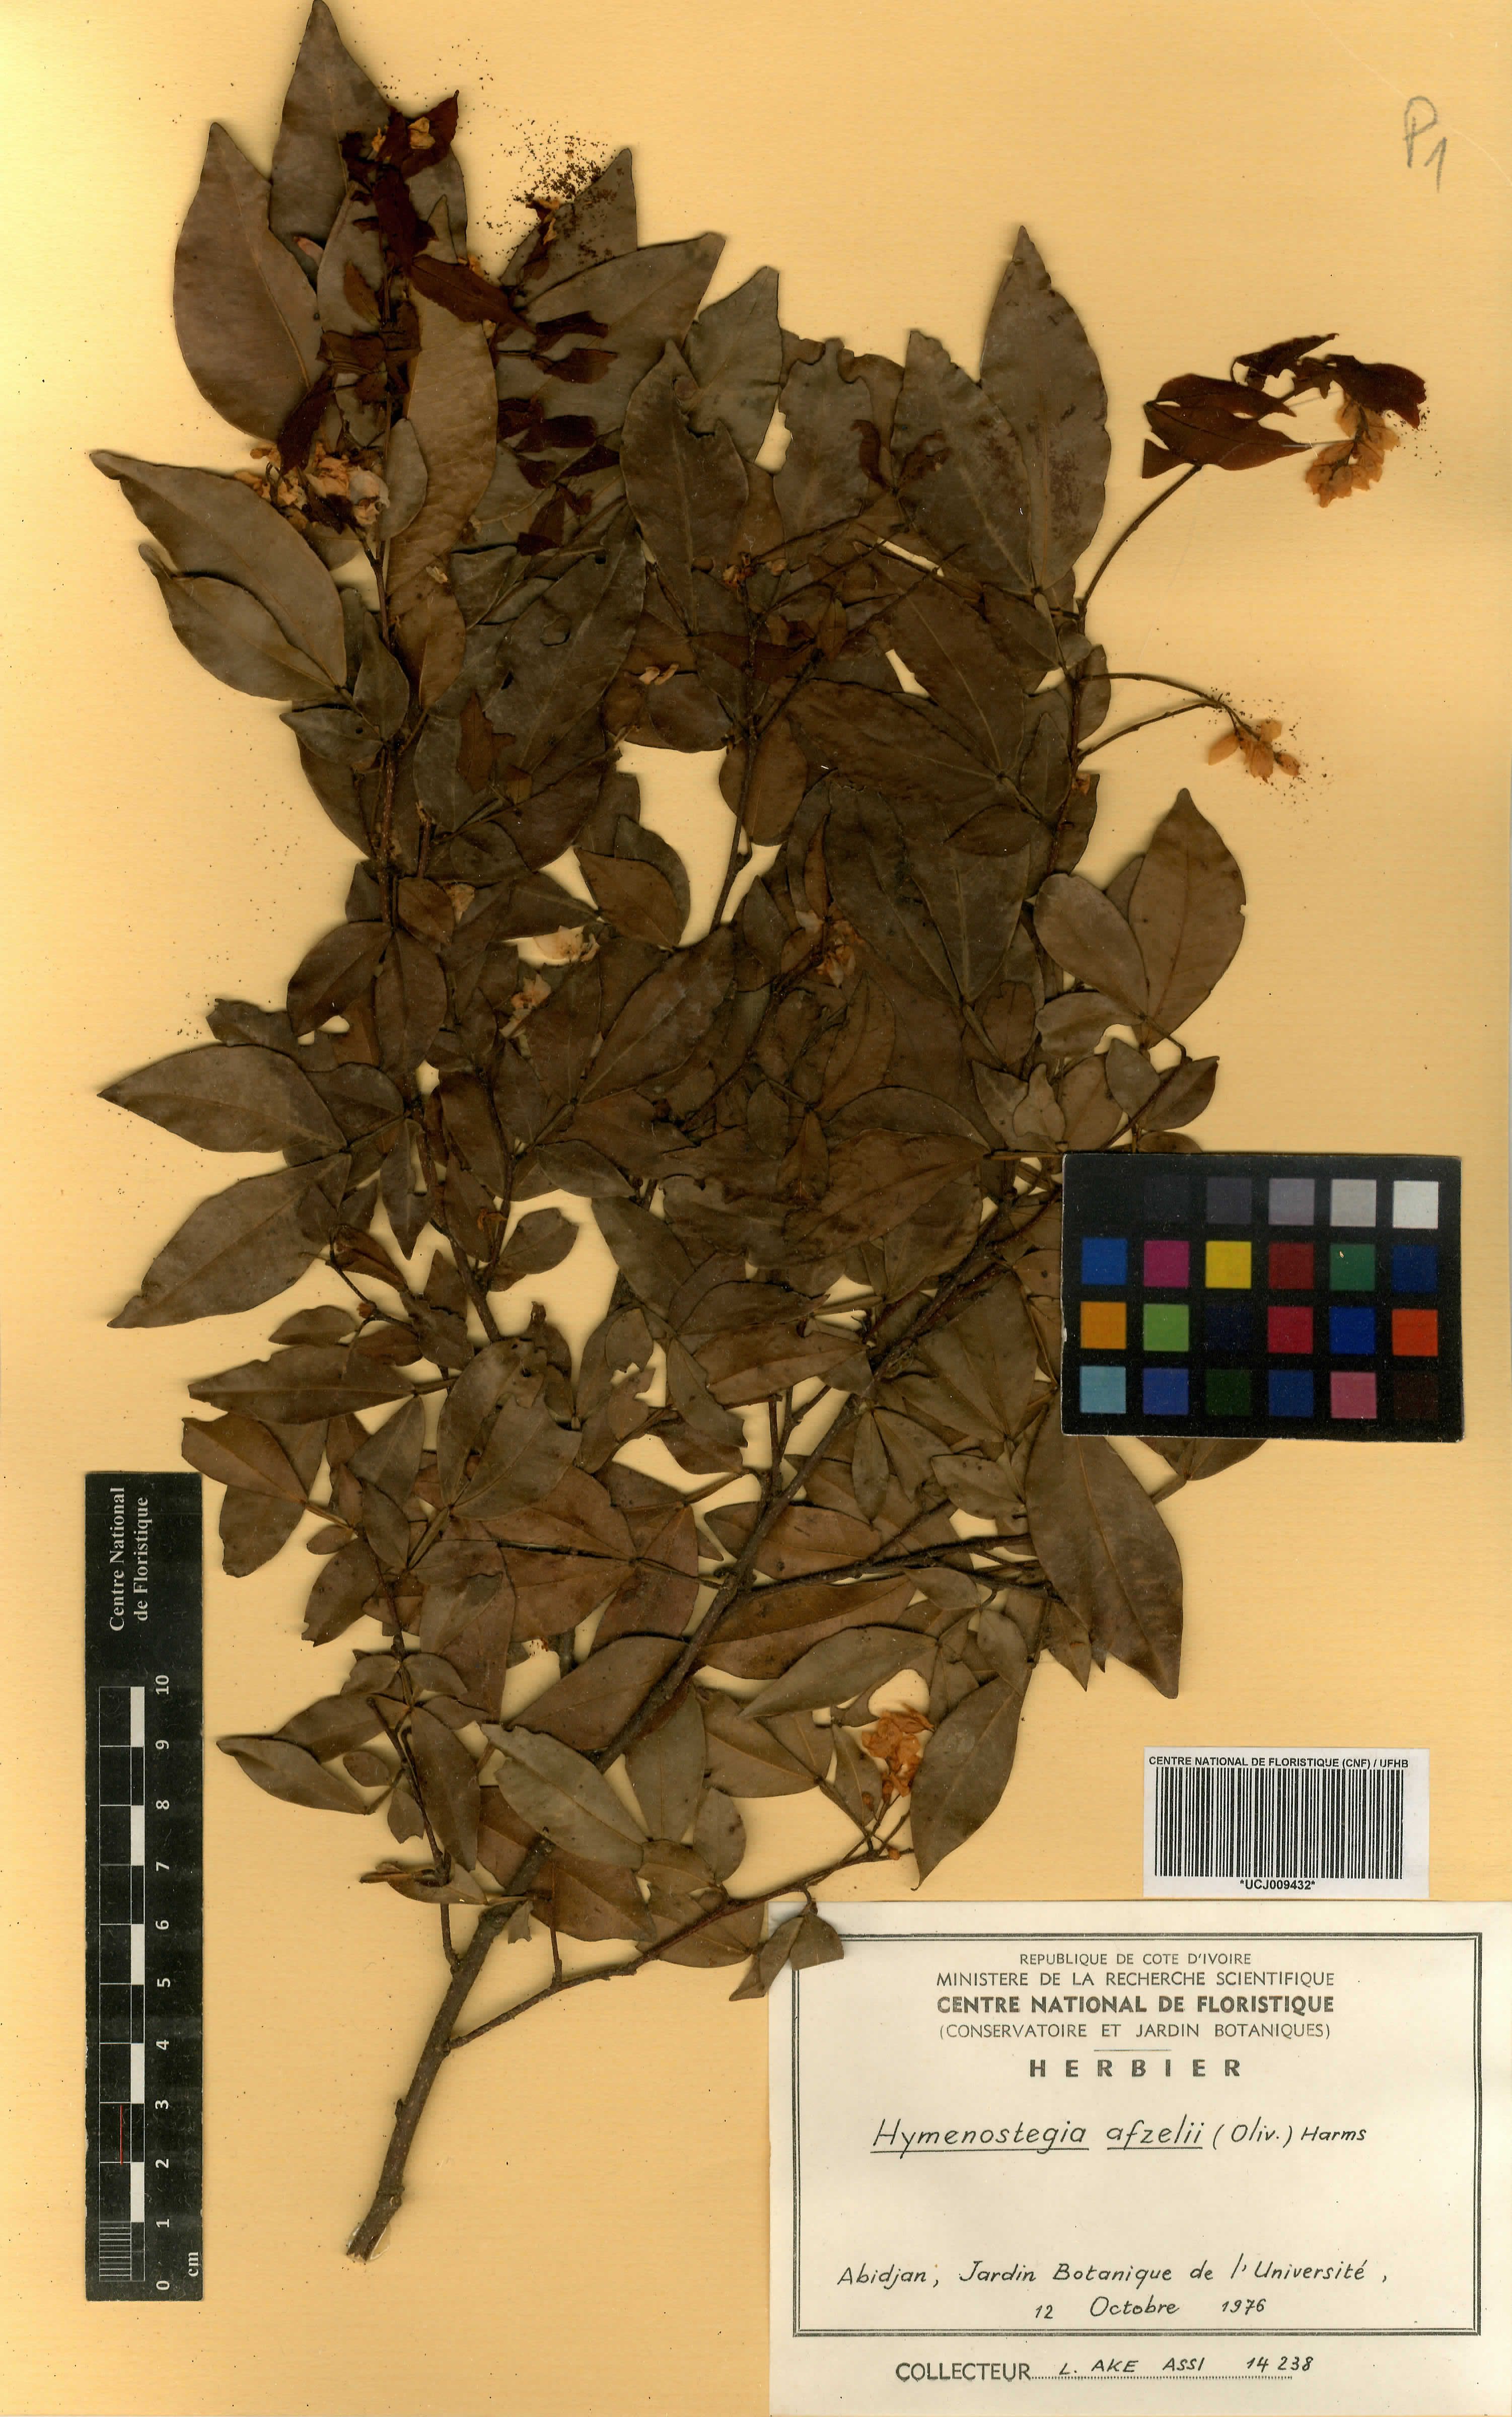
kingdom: Plantae
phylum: Tracheophyta
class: Magnoliopsida
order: Fabales
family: Fabaceae
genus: Annea
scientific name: Annea afzelii
